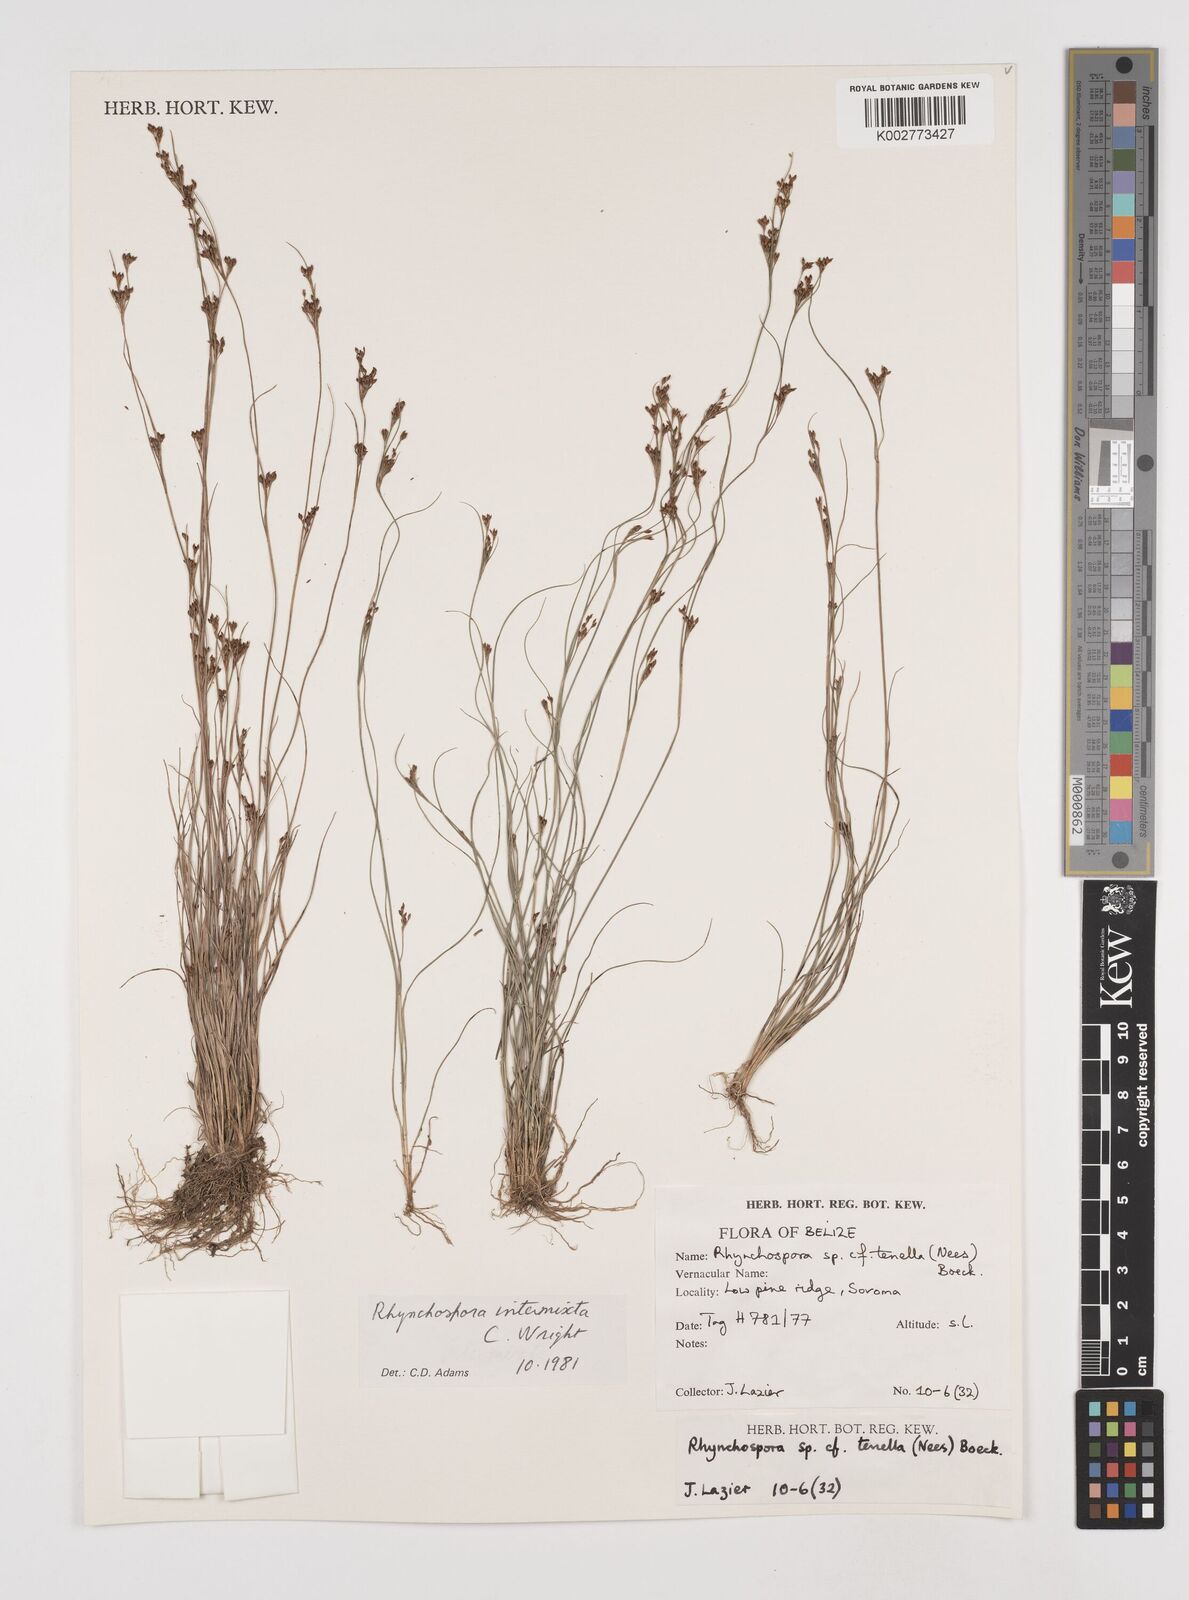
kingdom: Plantae
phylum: Tracheophyta
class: Liliopsida
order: Poales
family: Cyperaceae
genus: Rhynchospora
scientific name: Rhynchospora intermixta
